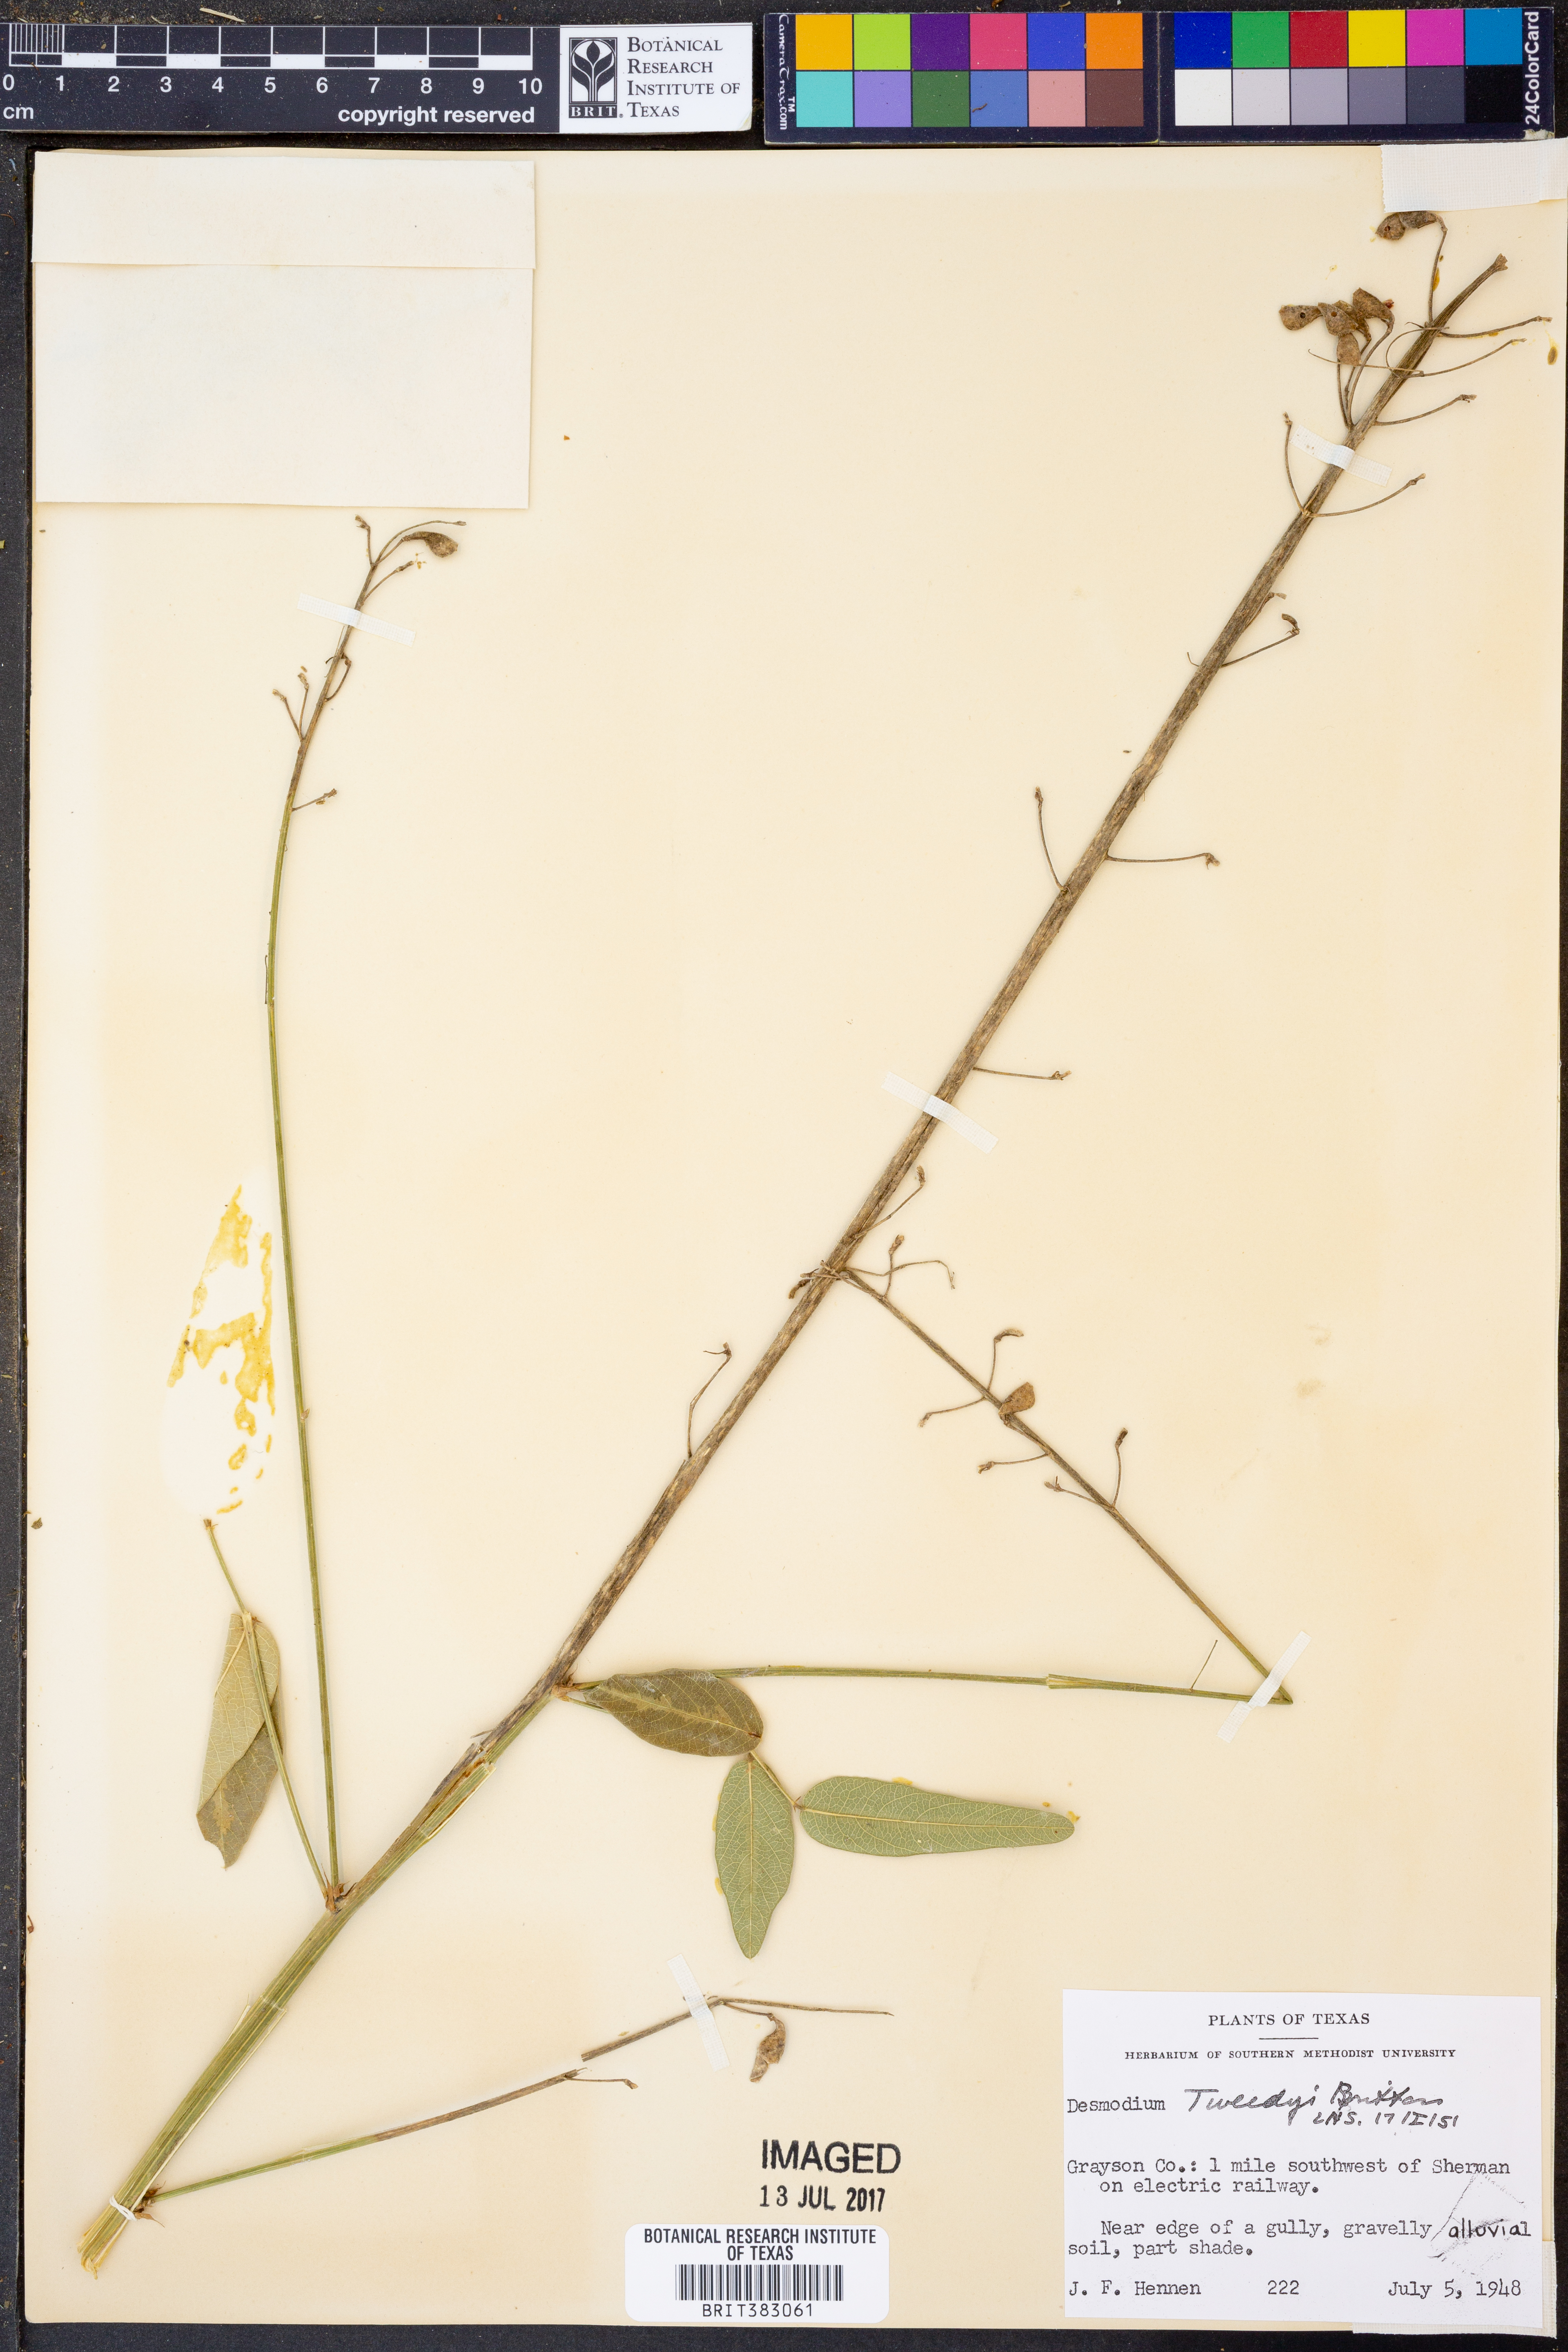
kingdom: Plantae
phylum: Tracheophyta
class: Magnoliopsida
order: Fabales
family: Fabaceae
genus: Desmodium
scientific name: Desmodium tweedyi
